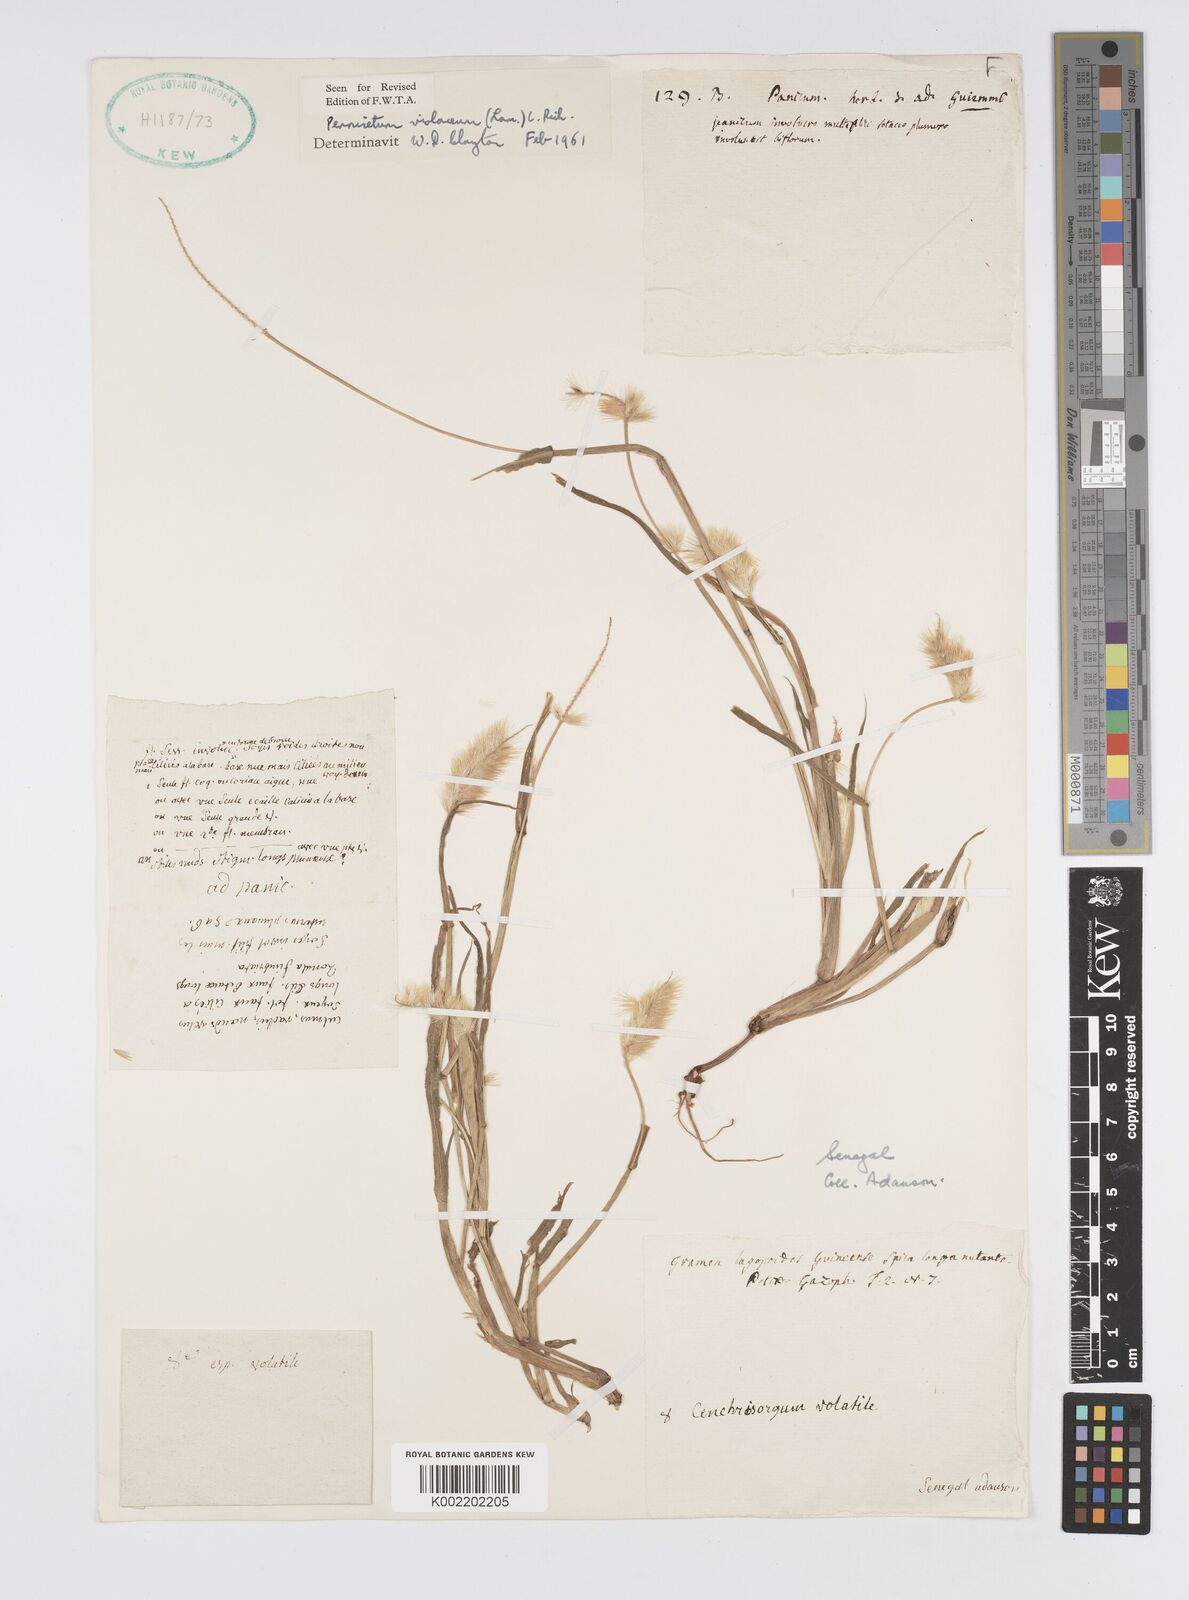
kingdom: Plantae
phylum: Tracheophyta
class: Liliopsida
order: Poales
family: Poaceae
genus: Cenchrus
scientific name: Cenchrus violaceus
